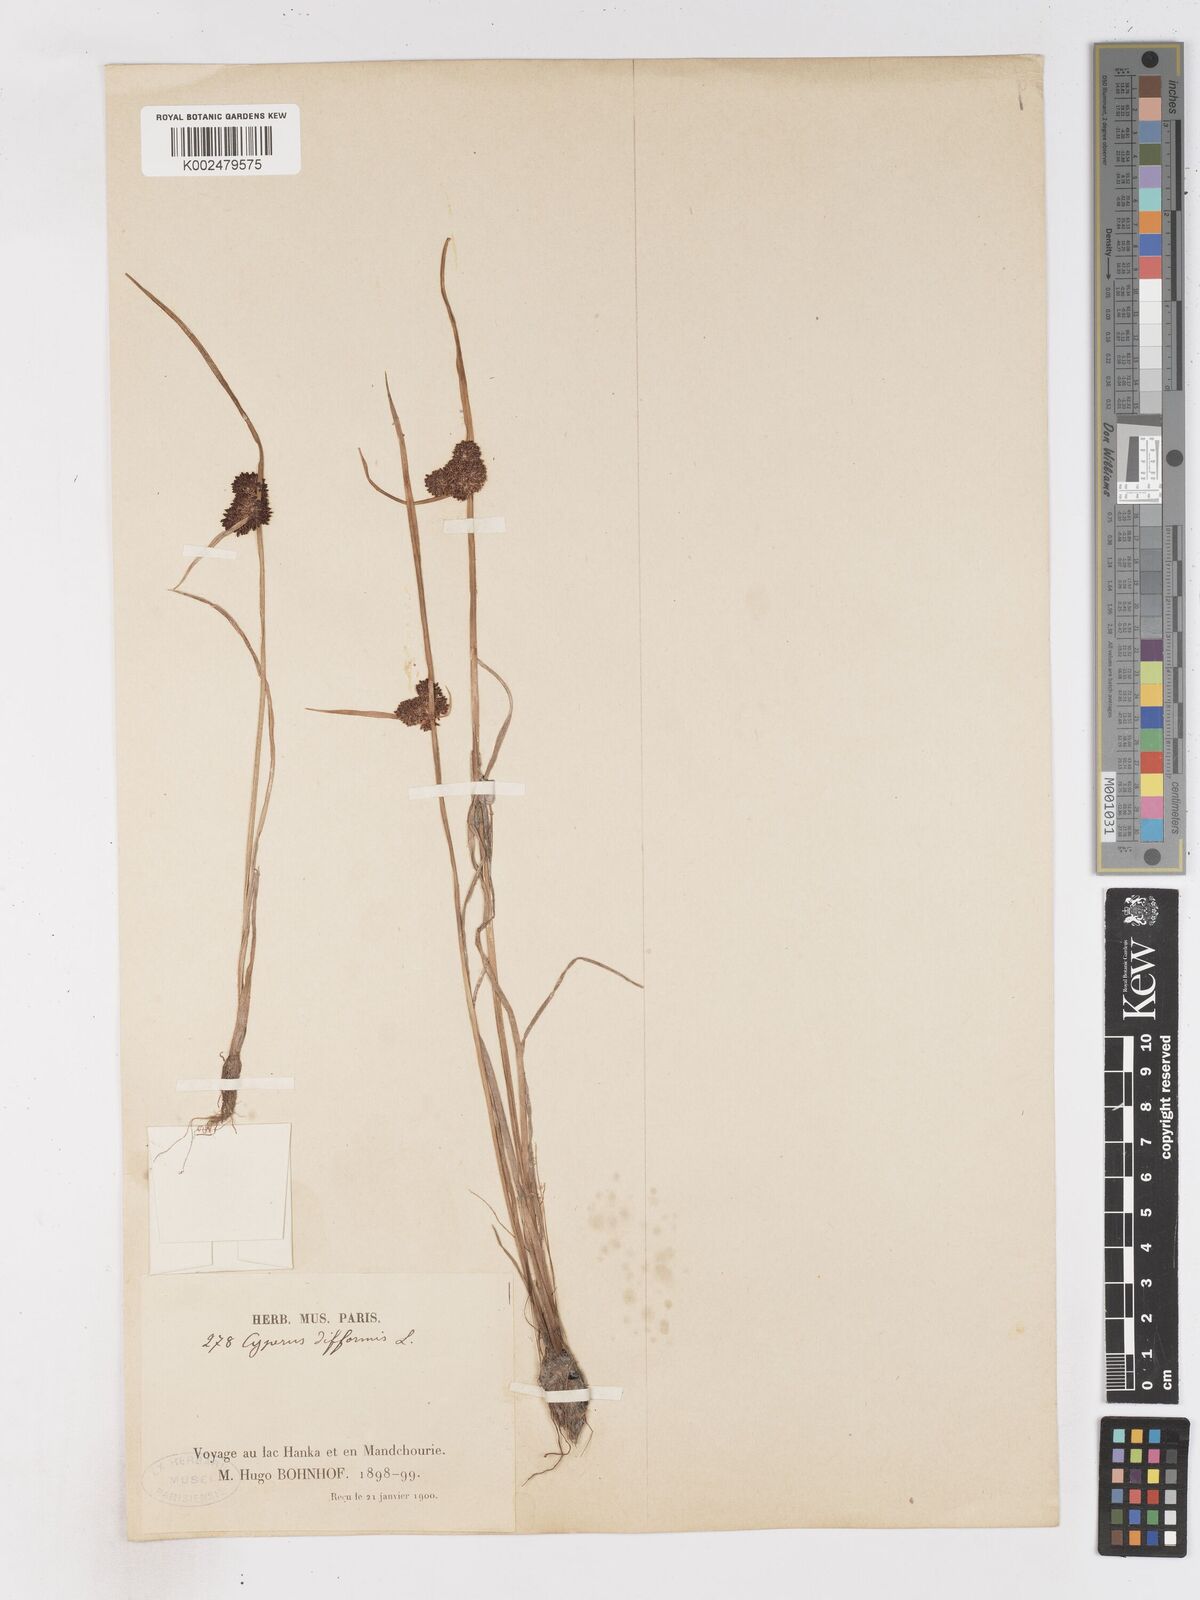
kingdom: Plantae
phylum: Tracheophyta
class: Liliopsida
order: Poales
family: Cyperaceae
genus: Cyperus
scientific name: Cyperus difformis
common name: Variable flatsedge
